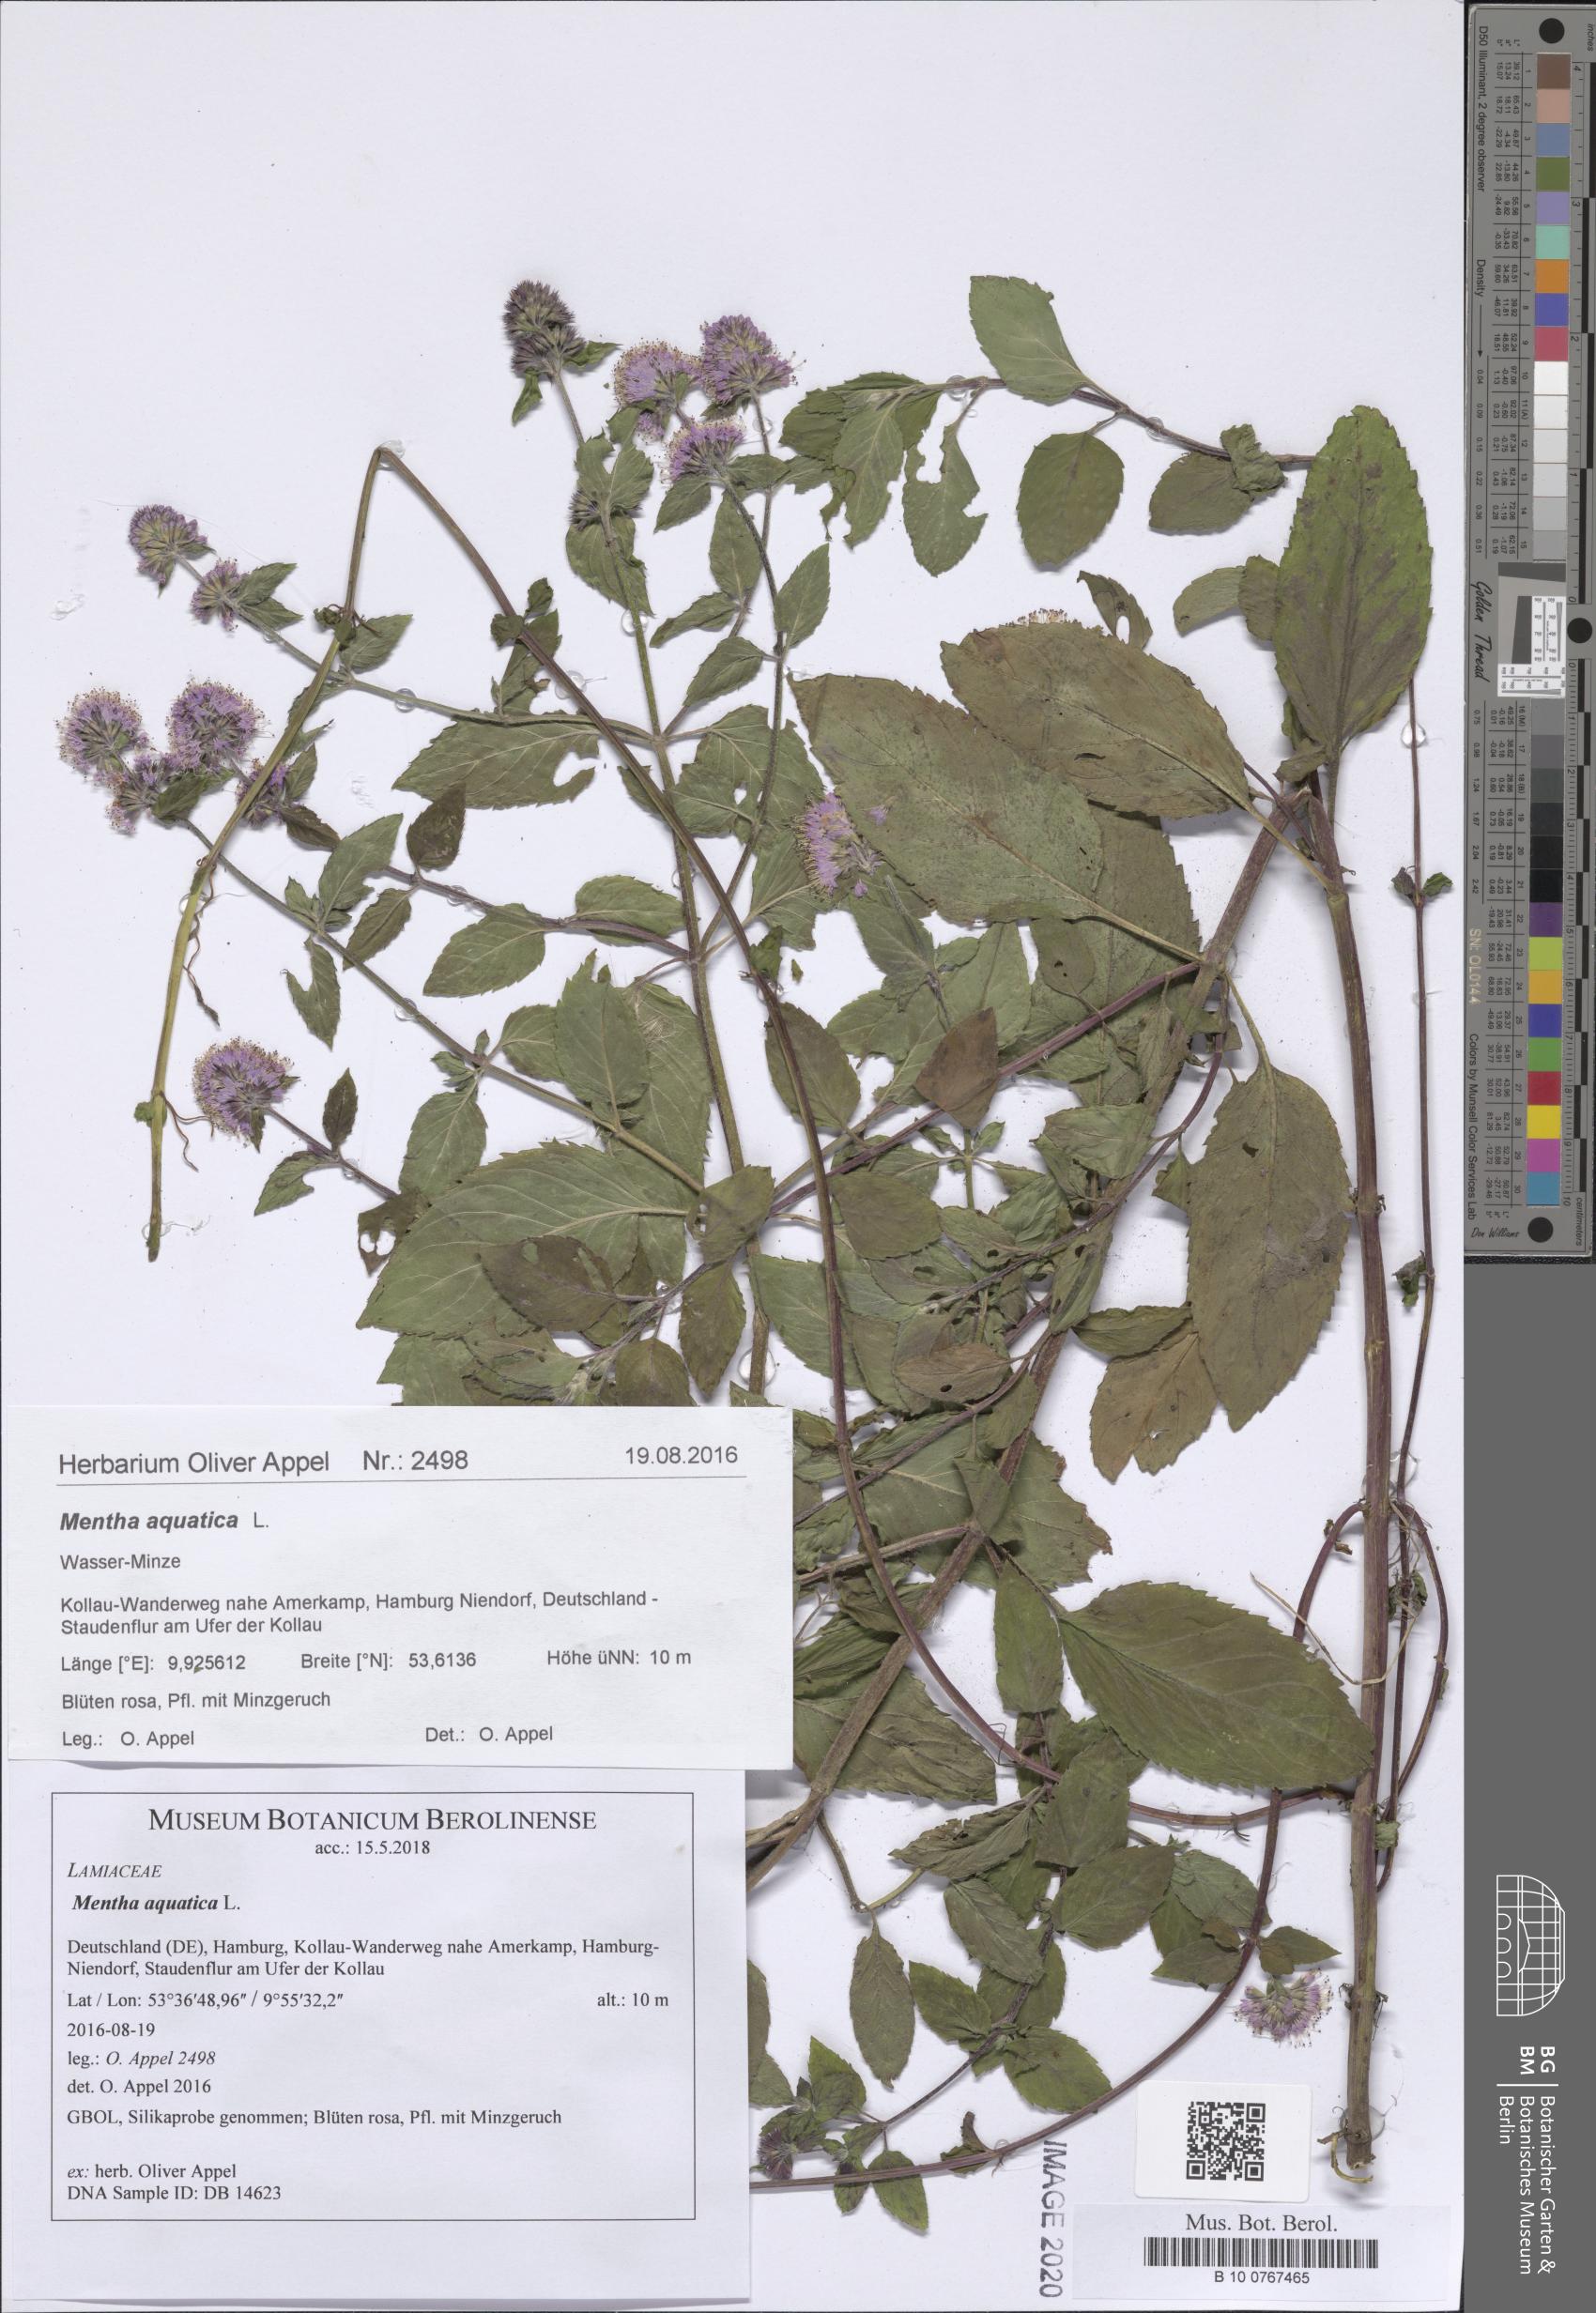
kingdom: Plantae
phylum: Tracheophyta
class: Magnoliopsida
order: Lamiales
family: Lamiaceae
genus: Mentha
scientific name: Mentha aquatica
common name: Water mint
